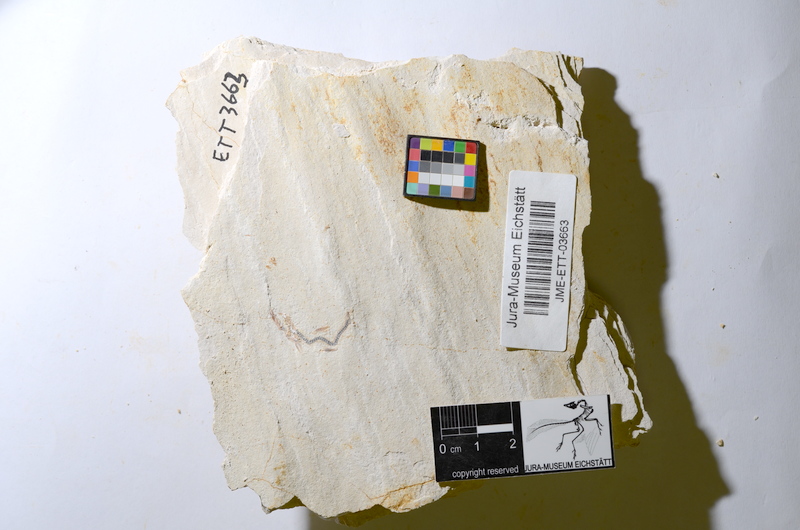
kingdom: Animalia
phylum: Chordata
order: Salmoniformes
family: Orthogonikleithridae
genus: Orthogonikleithrus
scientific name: Orthogonikleithrus hoelli
